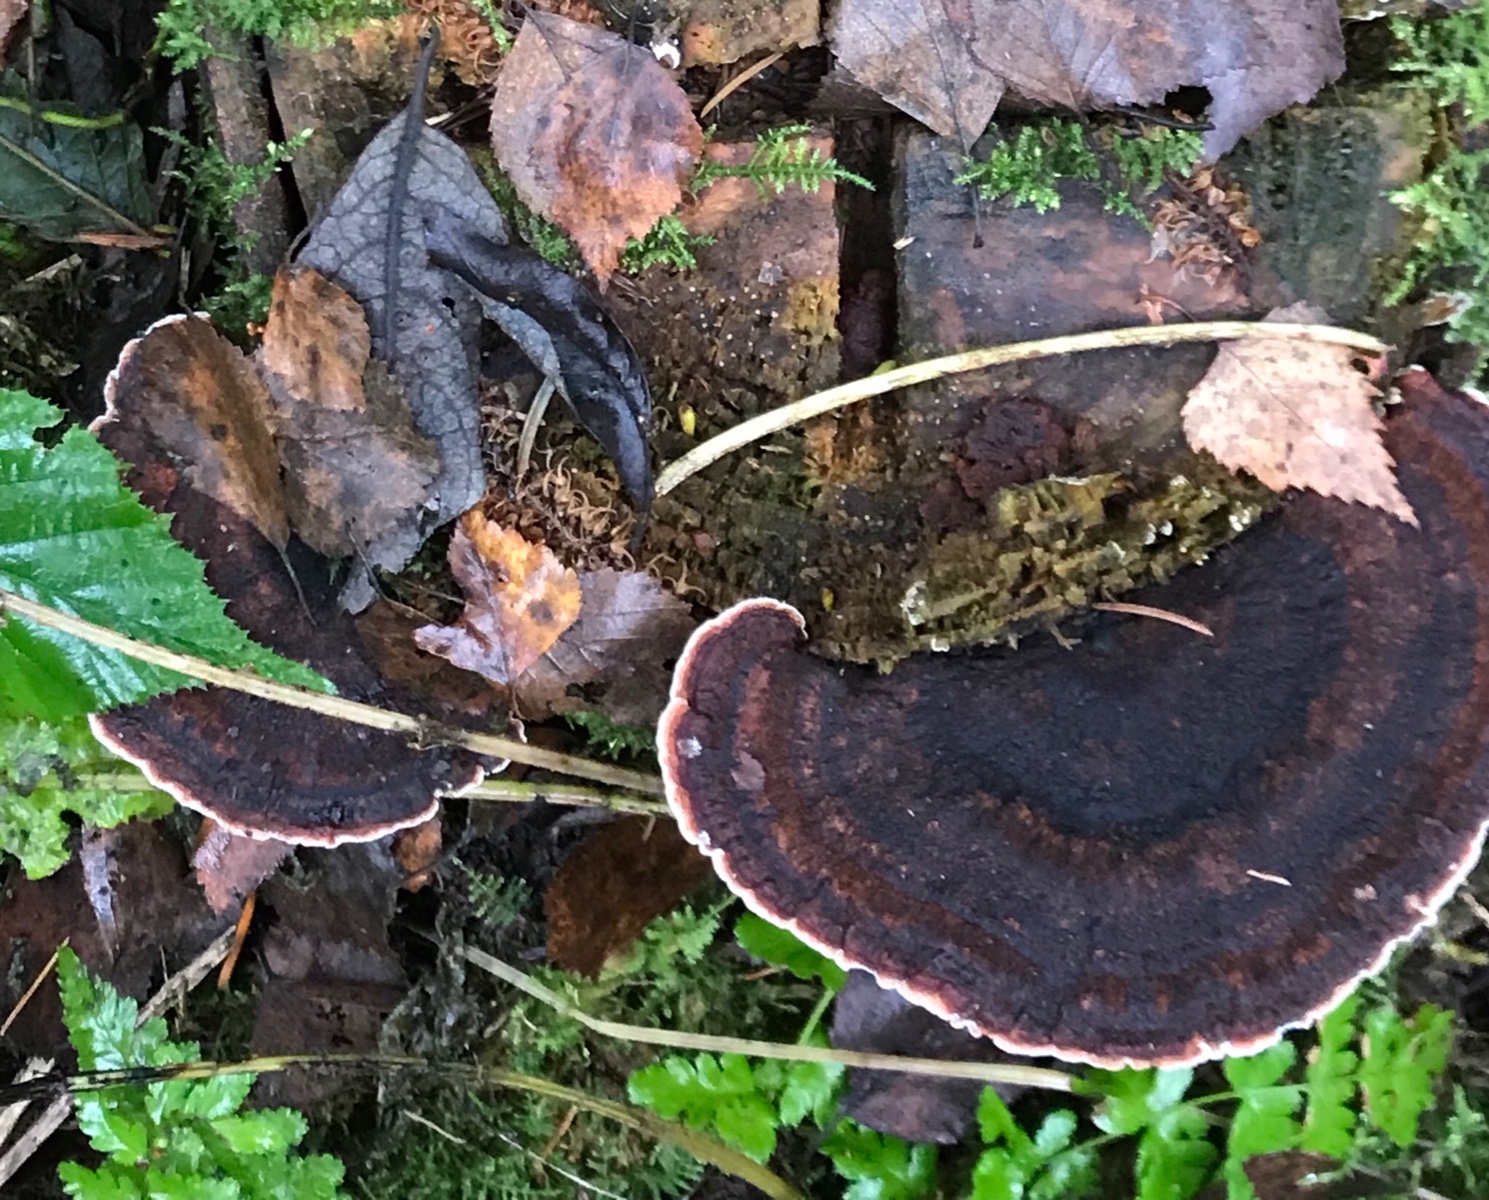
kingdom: Fungi
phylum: Basidiomycota
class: Agaricomycetes
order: Polyporales
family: Ischnodermataceae
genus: Ischnoderma
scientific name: Ischnoderma benzoinum
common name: gran-tjæreporesvamp
